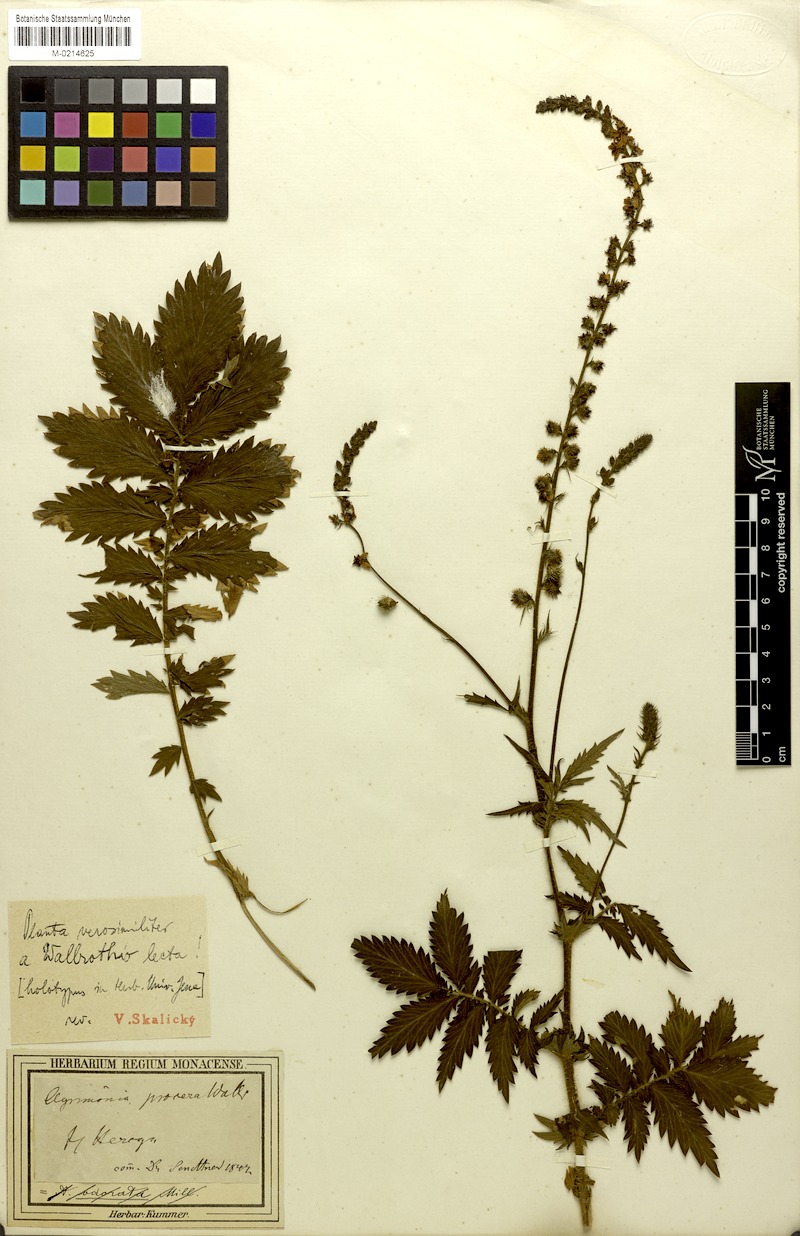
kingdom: Plantae
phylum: Tracheophyta
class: Magnoliopsida
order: Rosales
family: Rosaceae
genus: Agrimonia
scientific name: Agrimonia procera
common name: Fragrant agrimony
